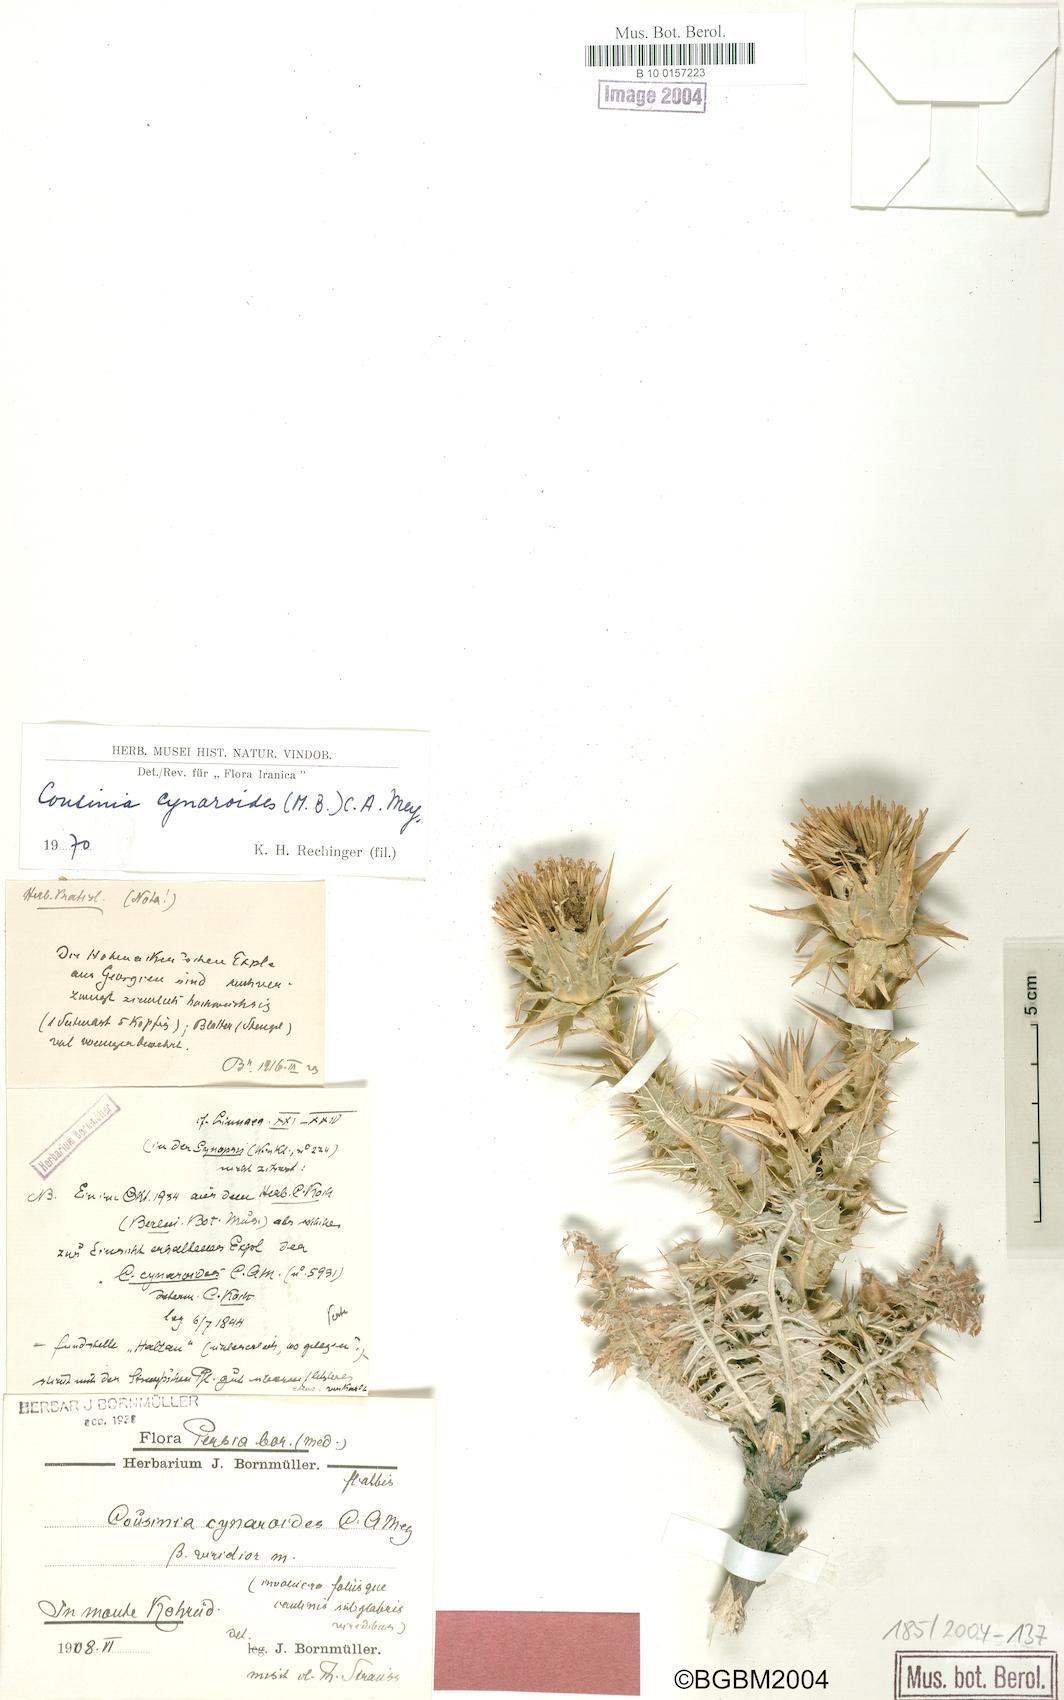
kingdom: Plantae
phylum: Tracheophyta
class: Magnoliopsida
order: Asterales
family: Asteraceae
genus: Cousinia
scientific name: Cousinia cynaroides
